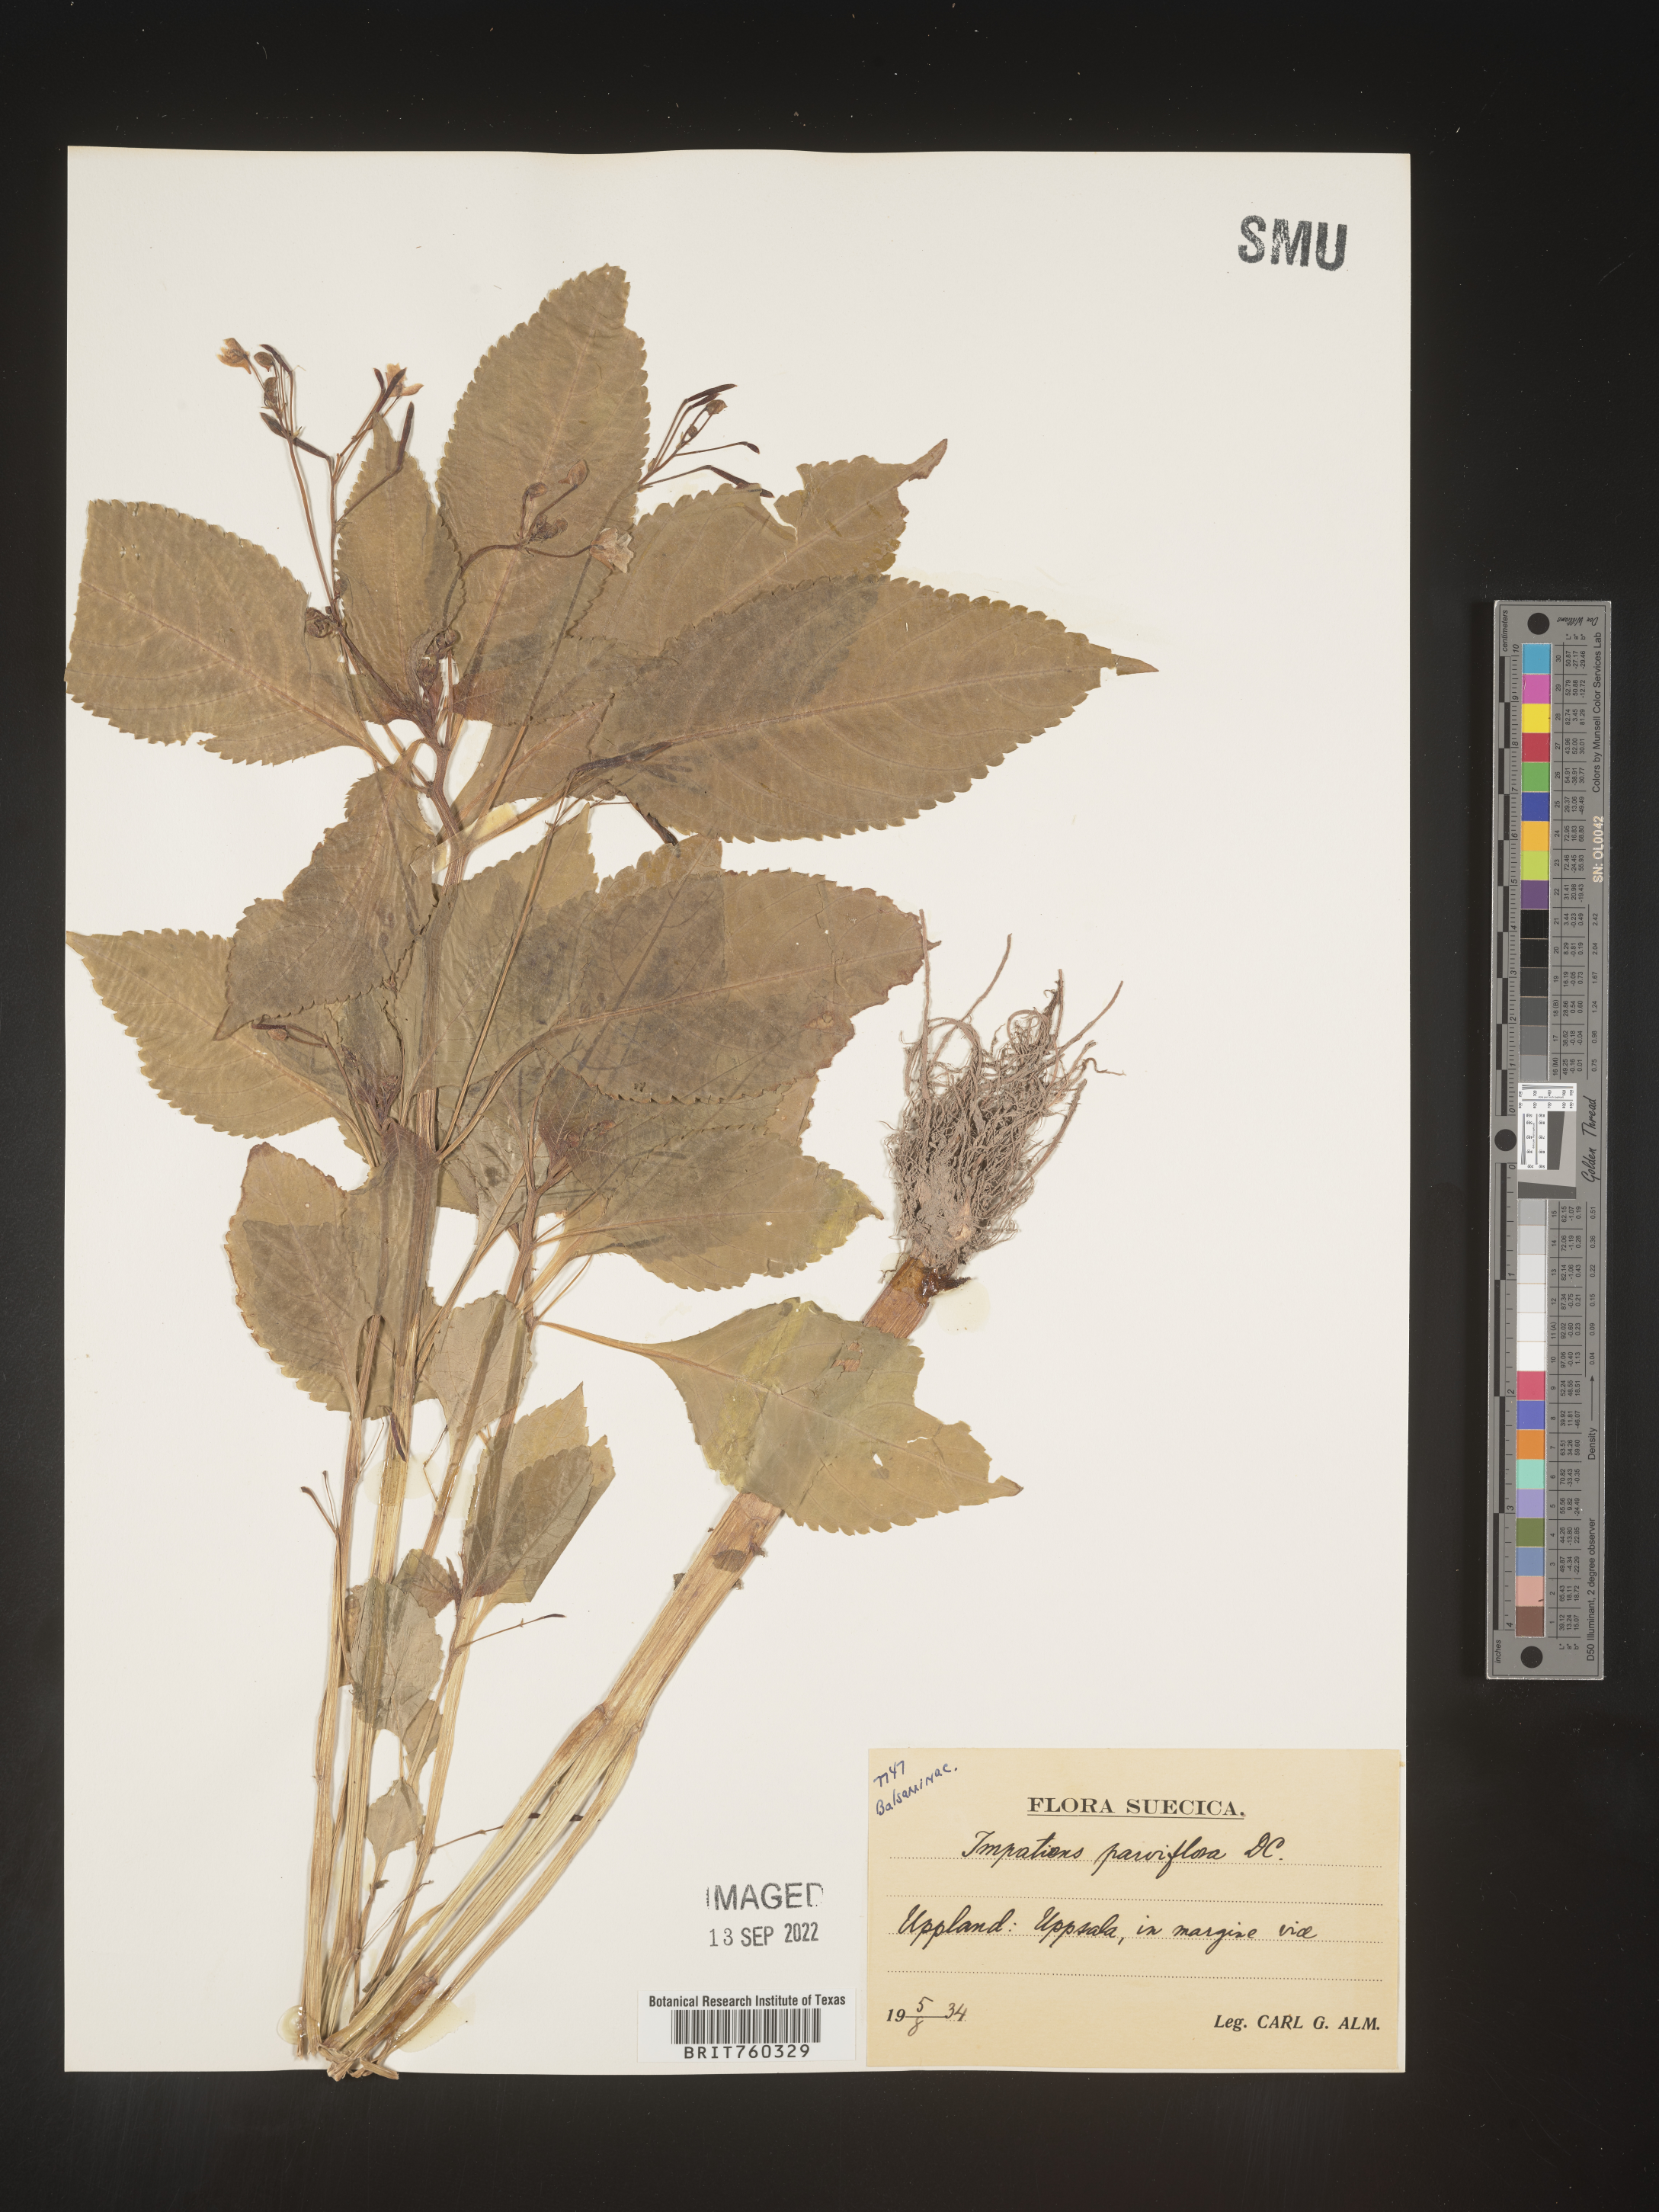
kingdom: Plantae
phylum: Tracheophyta
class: Magnoliopsida
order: Ericales
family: Balsaminaceae
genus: Impatiens
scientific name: Impatiens
